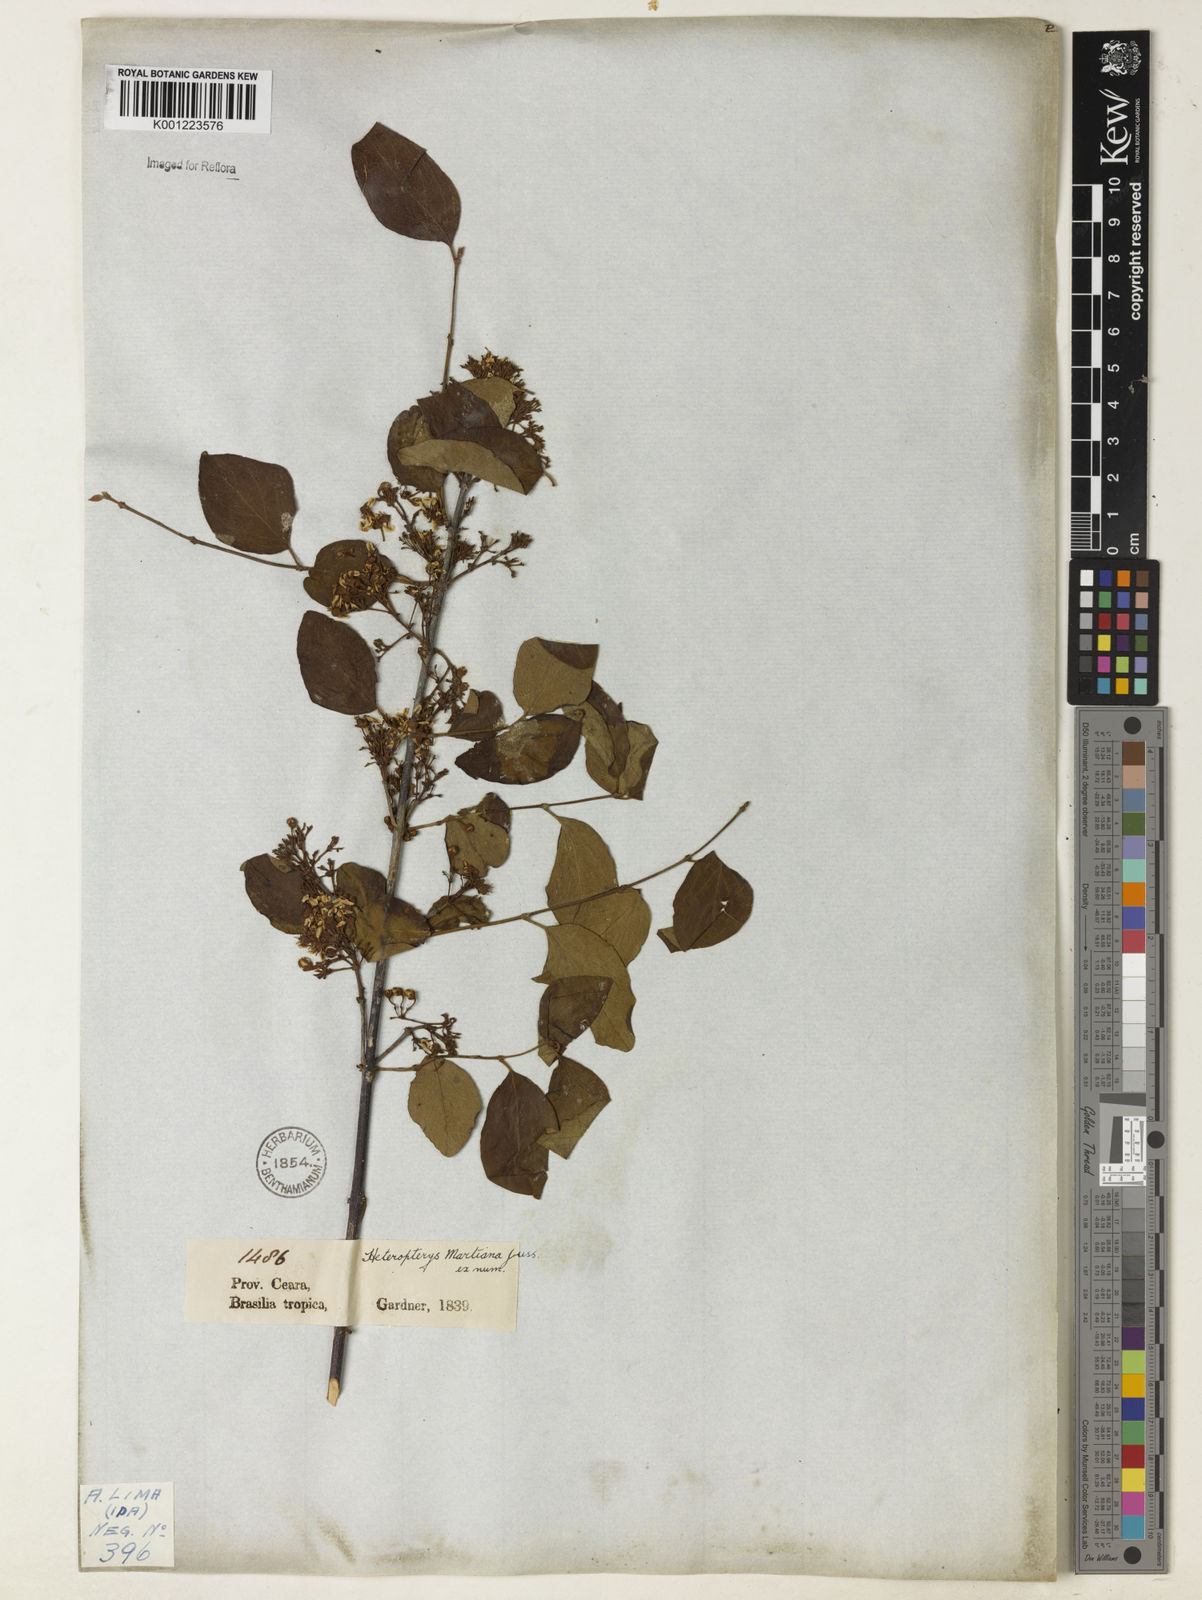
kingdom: Plantae
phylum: Tracheophyta
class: Magnoliopsida
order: Malpighiales
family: Malpighiaceae
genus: Heteropterys
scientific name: Heteropterys syringifolia
